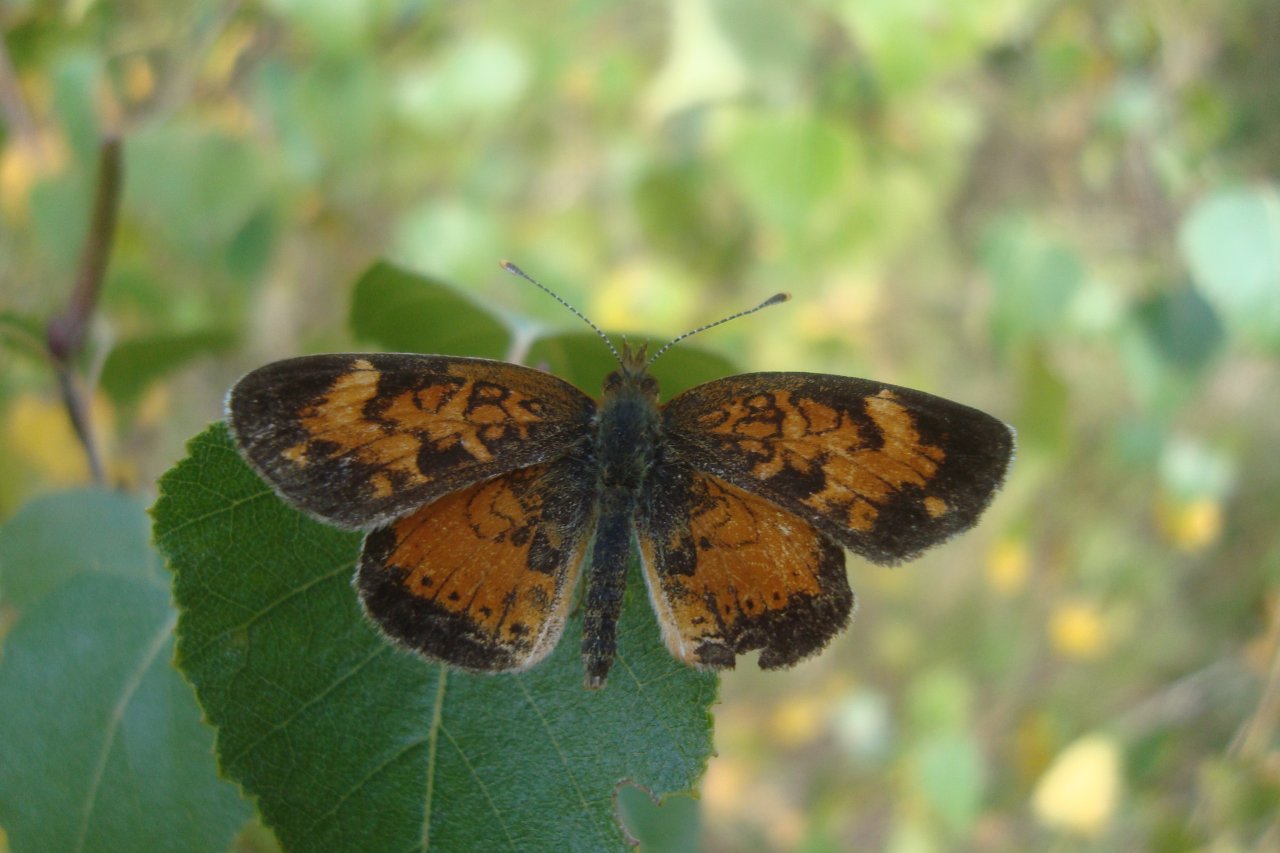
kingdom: Animalia
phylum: Arthropoda
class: Insecta
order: Lepidoptera
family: Nymphalidae
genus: Phyciodes
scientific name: Phyciodes tharos
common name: Northern Crescent
